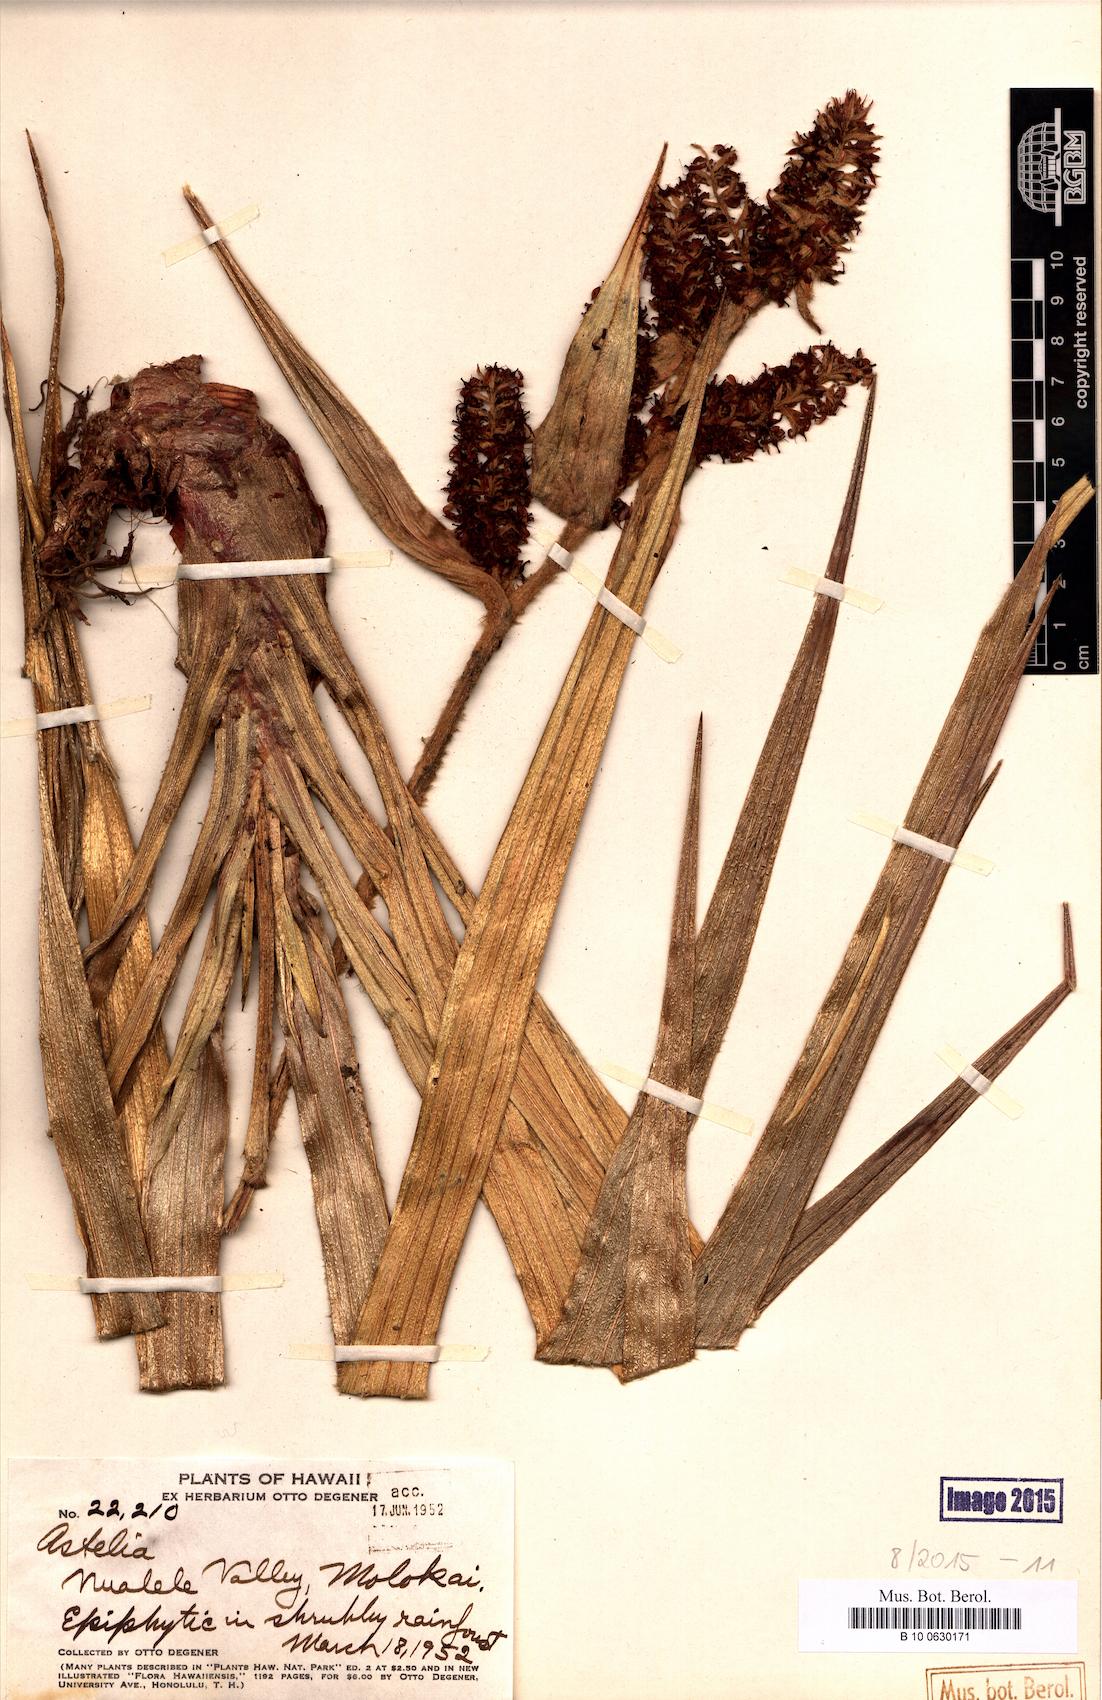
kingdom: Plantae
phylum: Tracheophyta
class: Liliopsida
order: Asparagales
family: Asteliaceae
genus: Astelia
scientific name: Astelia
